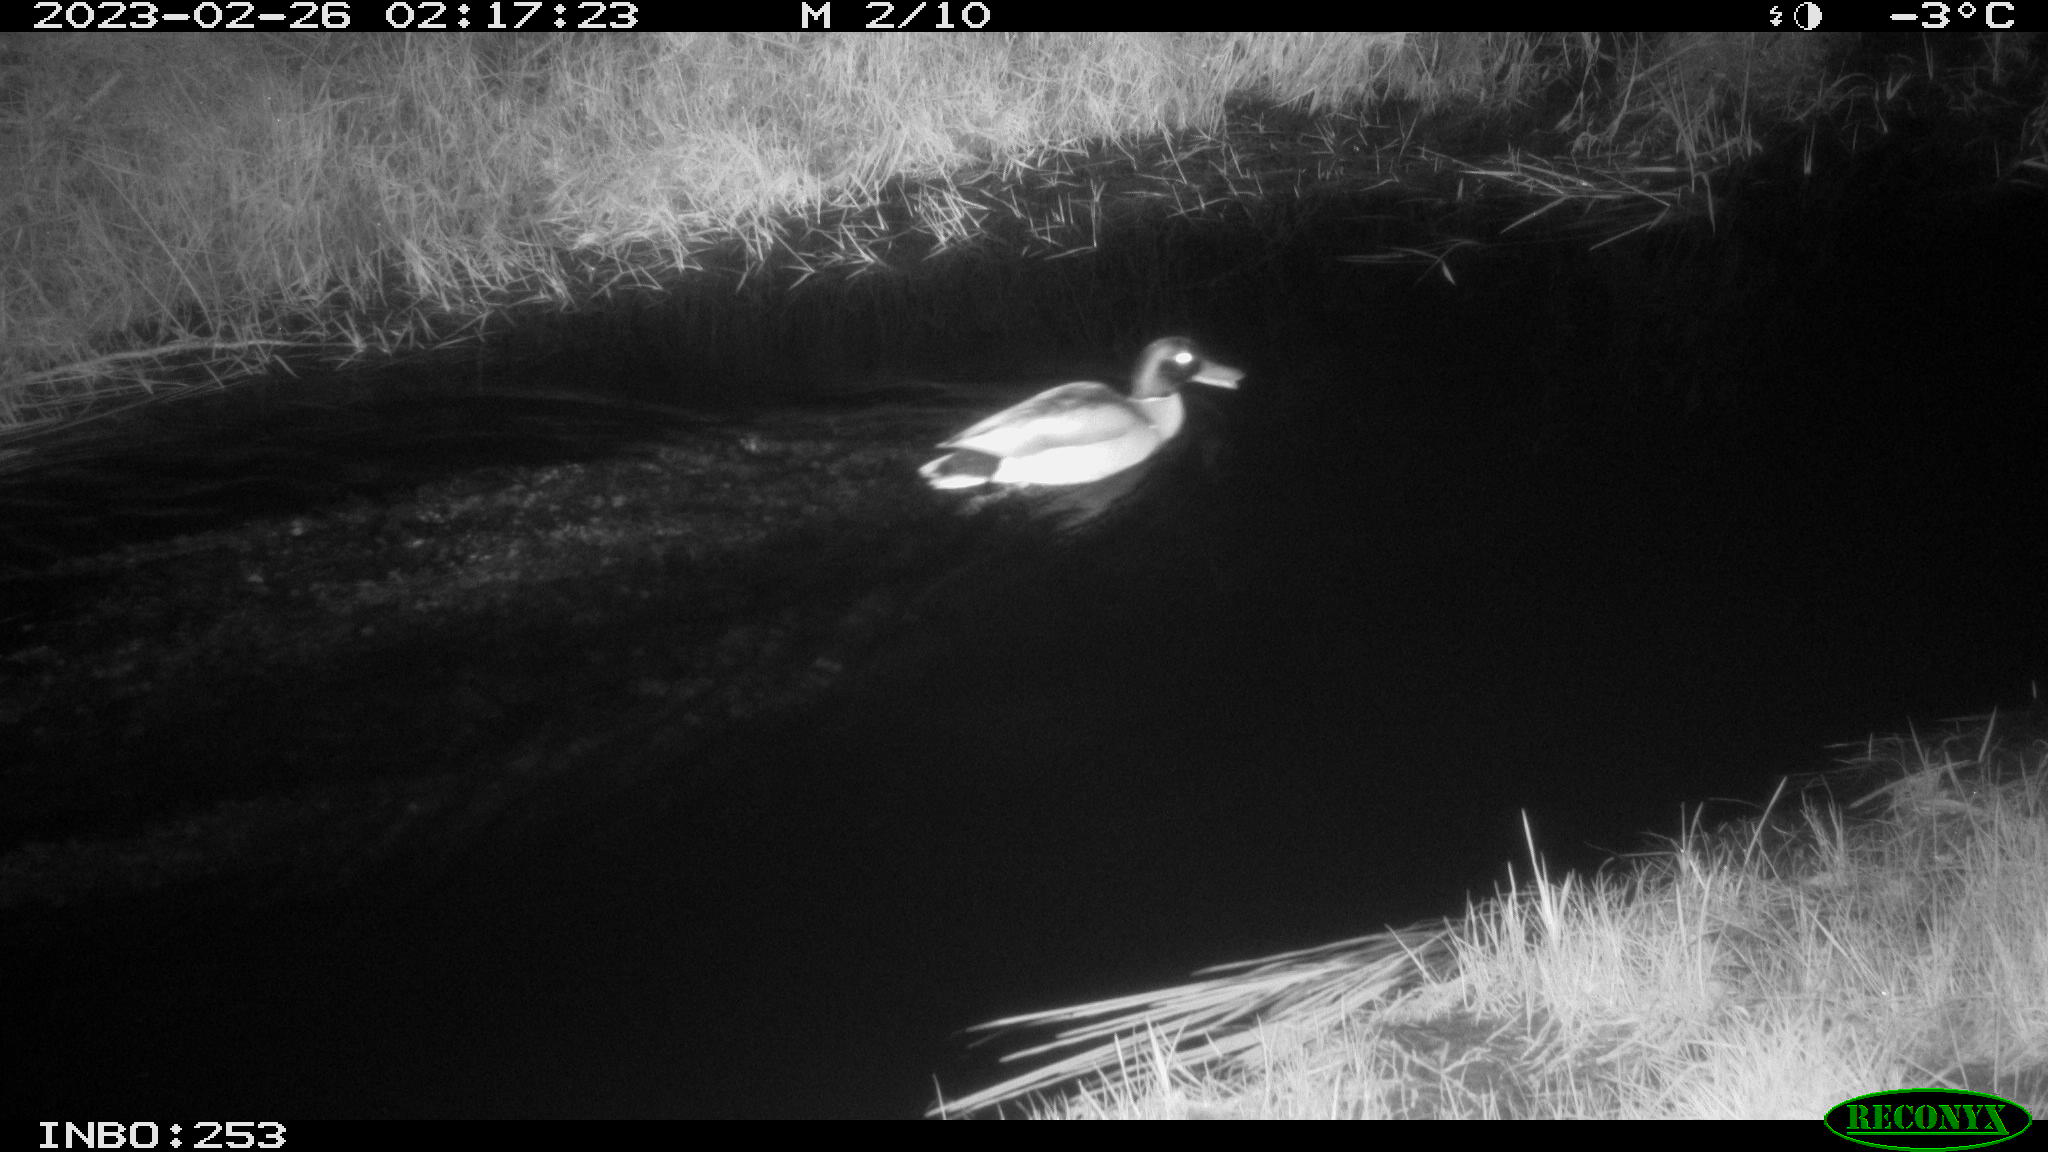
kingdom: Animalia
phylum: Chordata
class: Aves
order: Anseriformes
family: Anatidae
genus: Anas
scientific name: Anas
